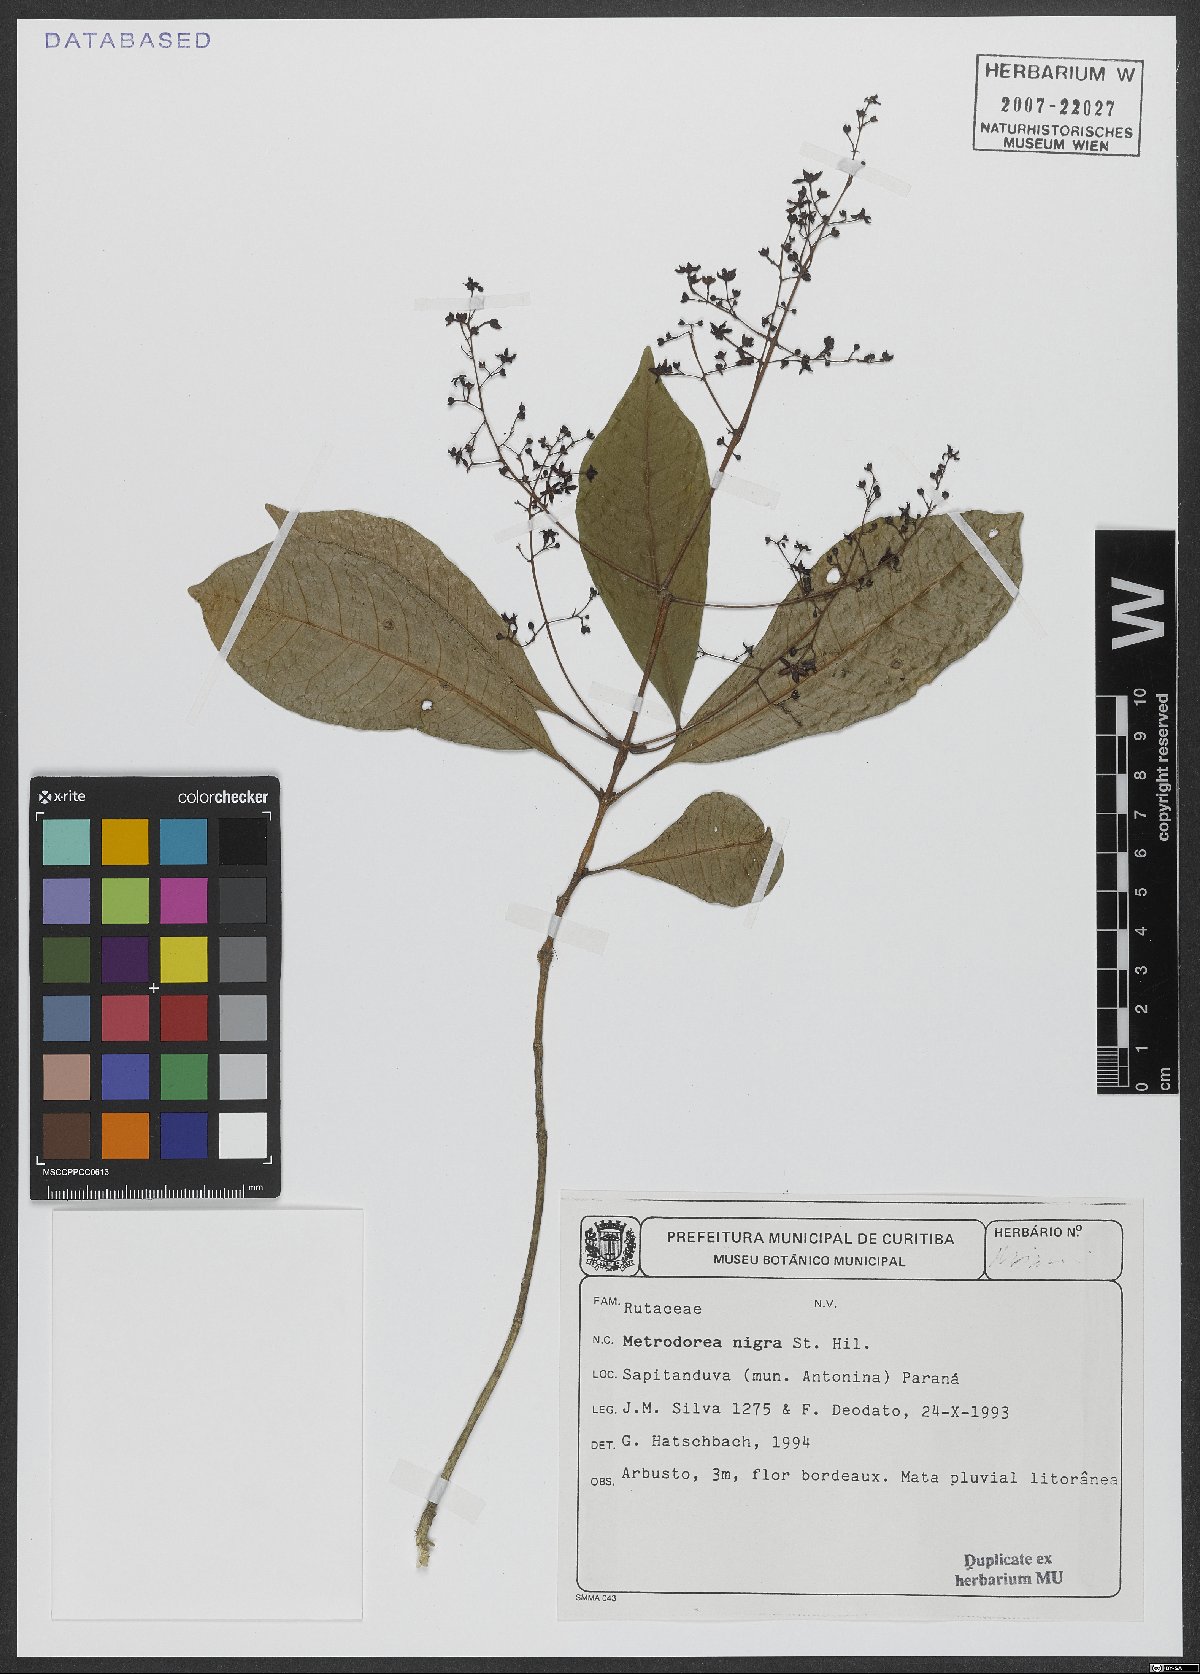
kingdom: Plantae
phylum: Tracheophyta
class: Magnoliopsida
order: Sapindales
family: Rutaceae
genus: Metrodorea
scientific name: Metrodorea nigra
